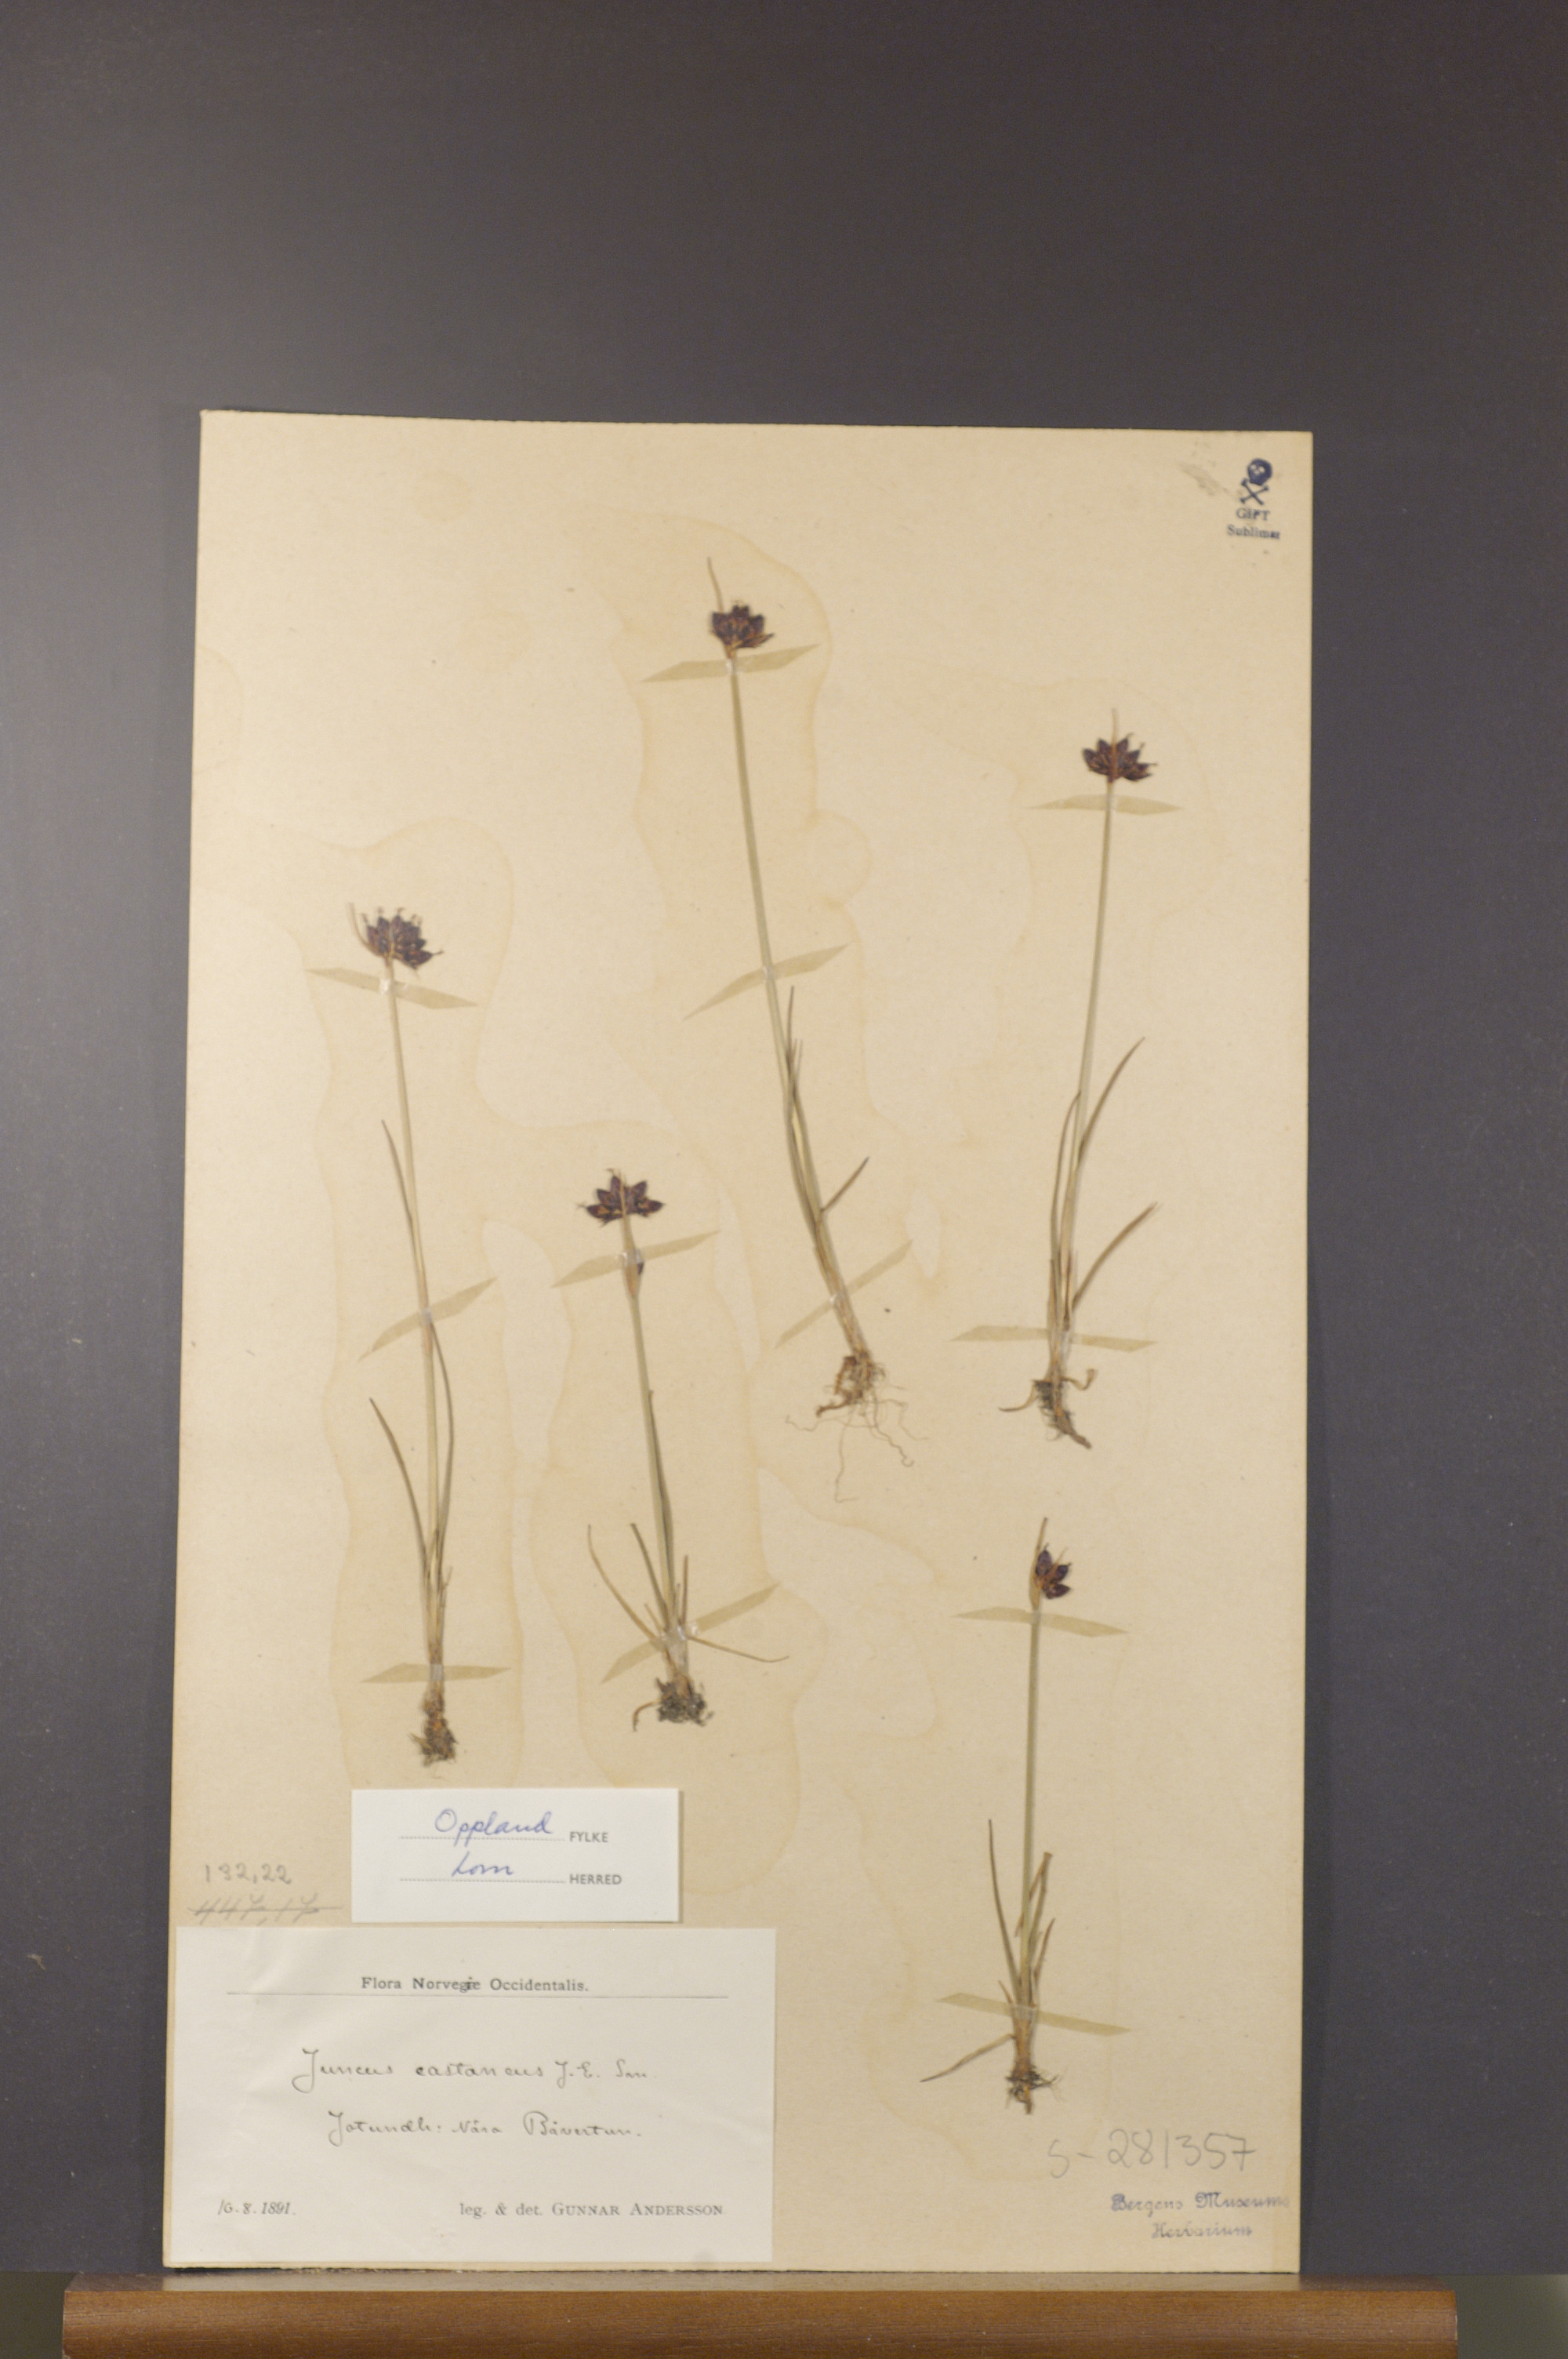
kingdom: Plantae
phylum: Tracheophyta
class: Liliopsida
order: Poales
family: Juncaceae
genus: Juncus
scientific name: Juncus castaneus
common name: Chestnut rush
